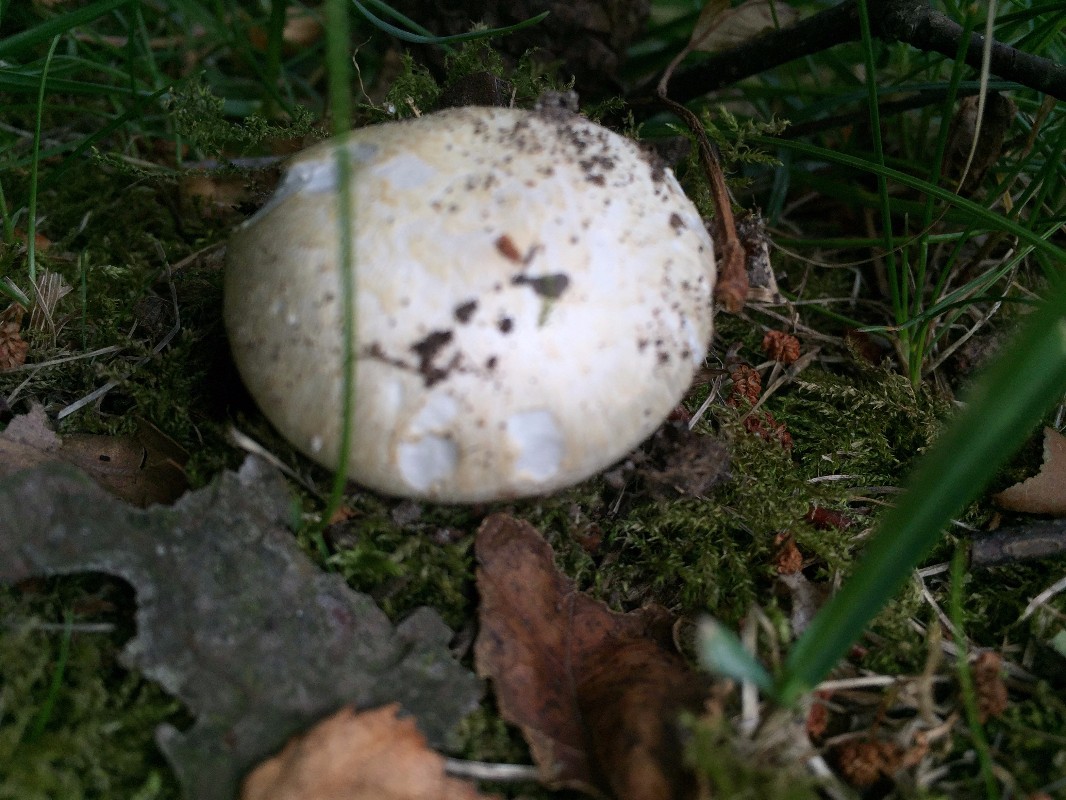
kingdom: Fungi
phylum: Basidiomycota
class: Agaricomycetes
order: Agaricales
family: Agaricaceae
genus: Agaricus
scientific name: Agaricus campestris
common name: mark-champignon
